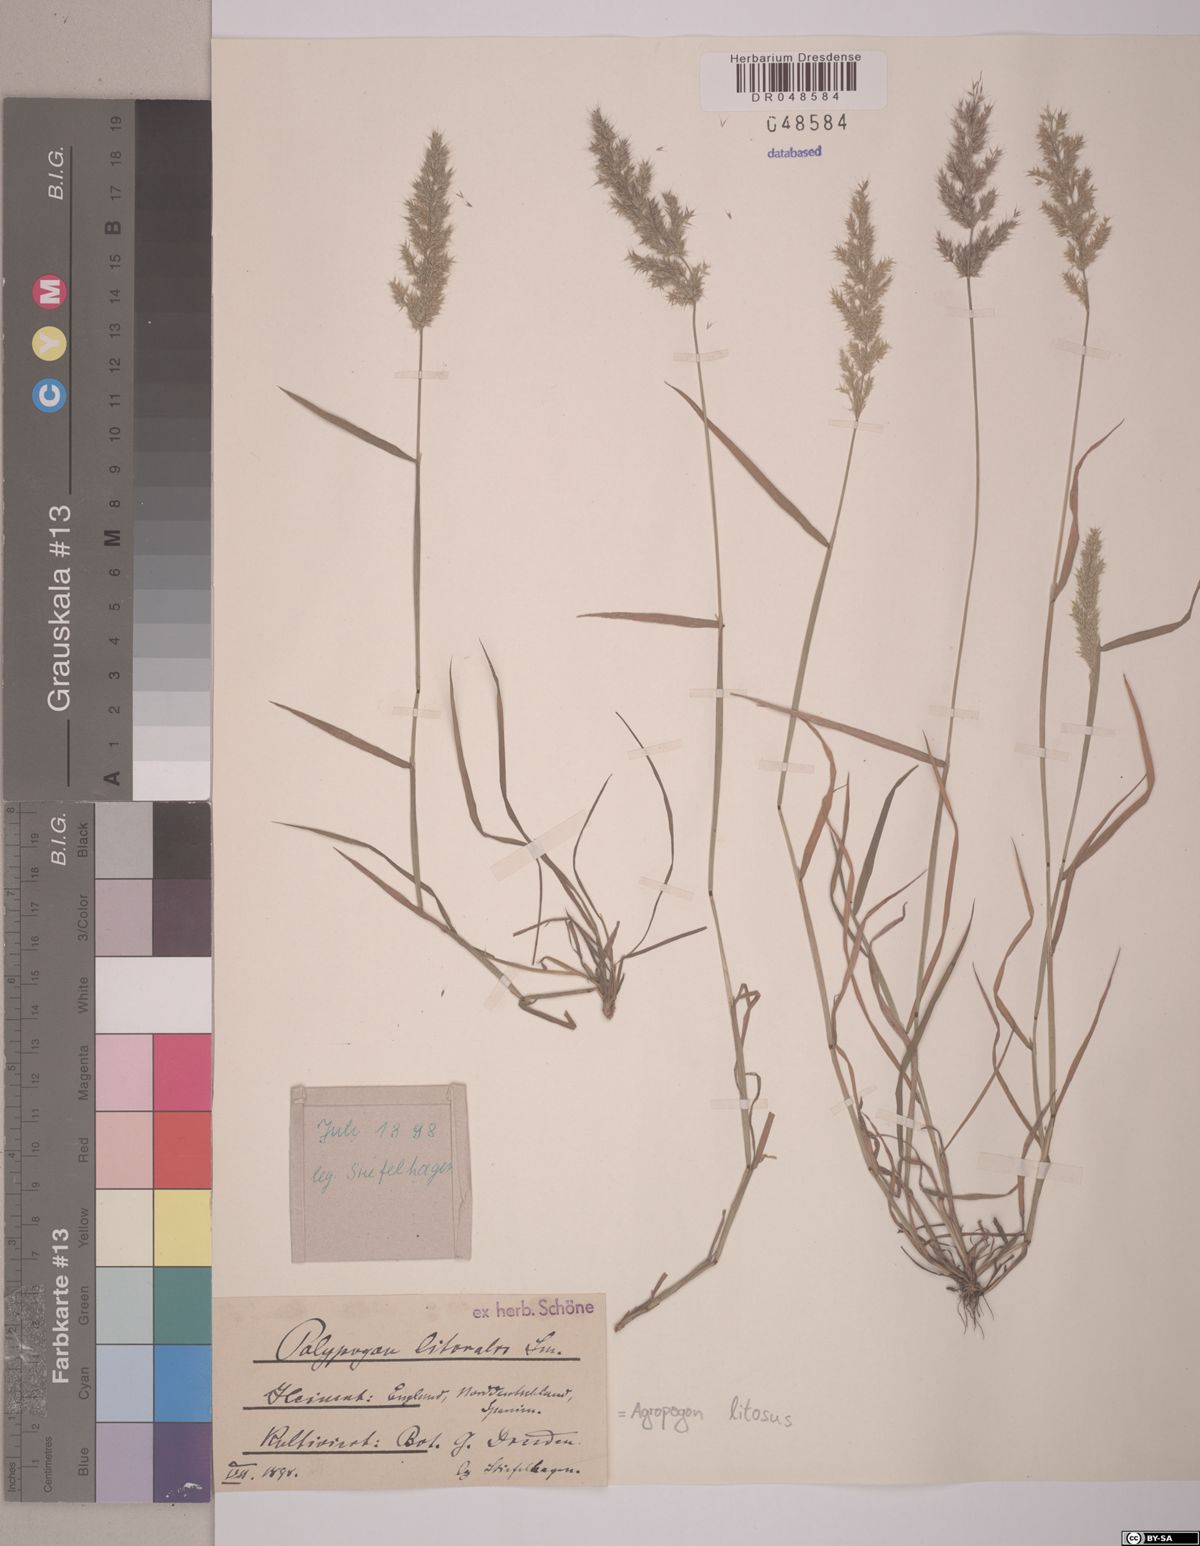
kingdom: Plantae
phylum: Tracheophyta
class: Liliopsida
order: Poales
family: Poaceae
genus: Agropogon
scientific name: Agropogon lutosus
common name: Coast agropogon
